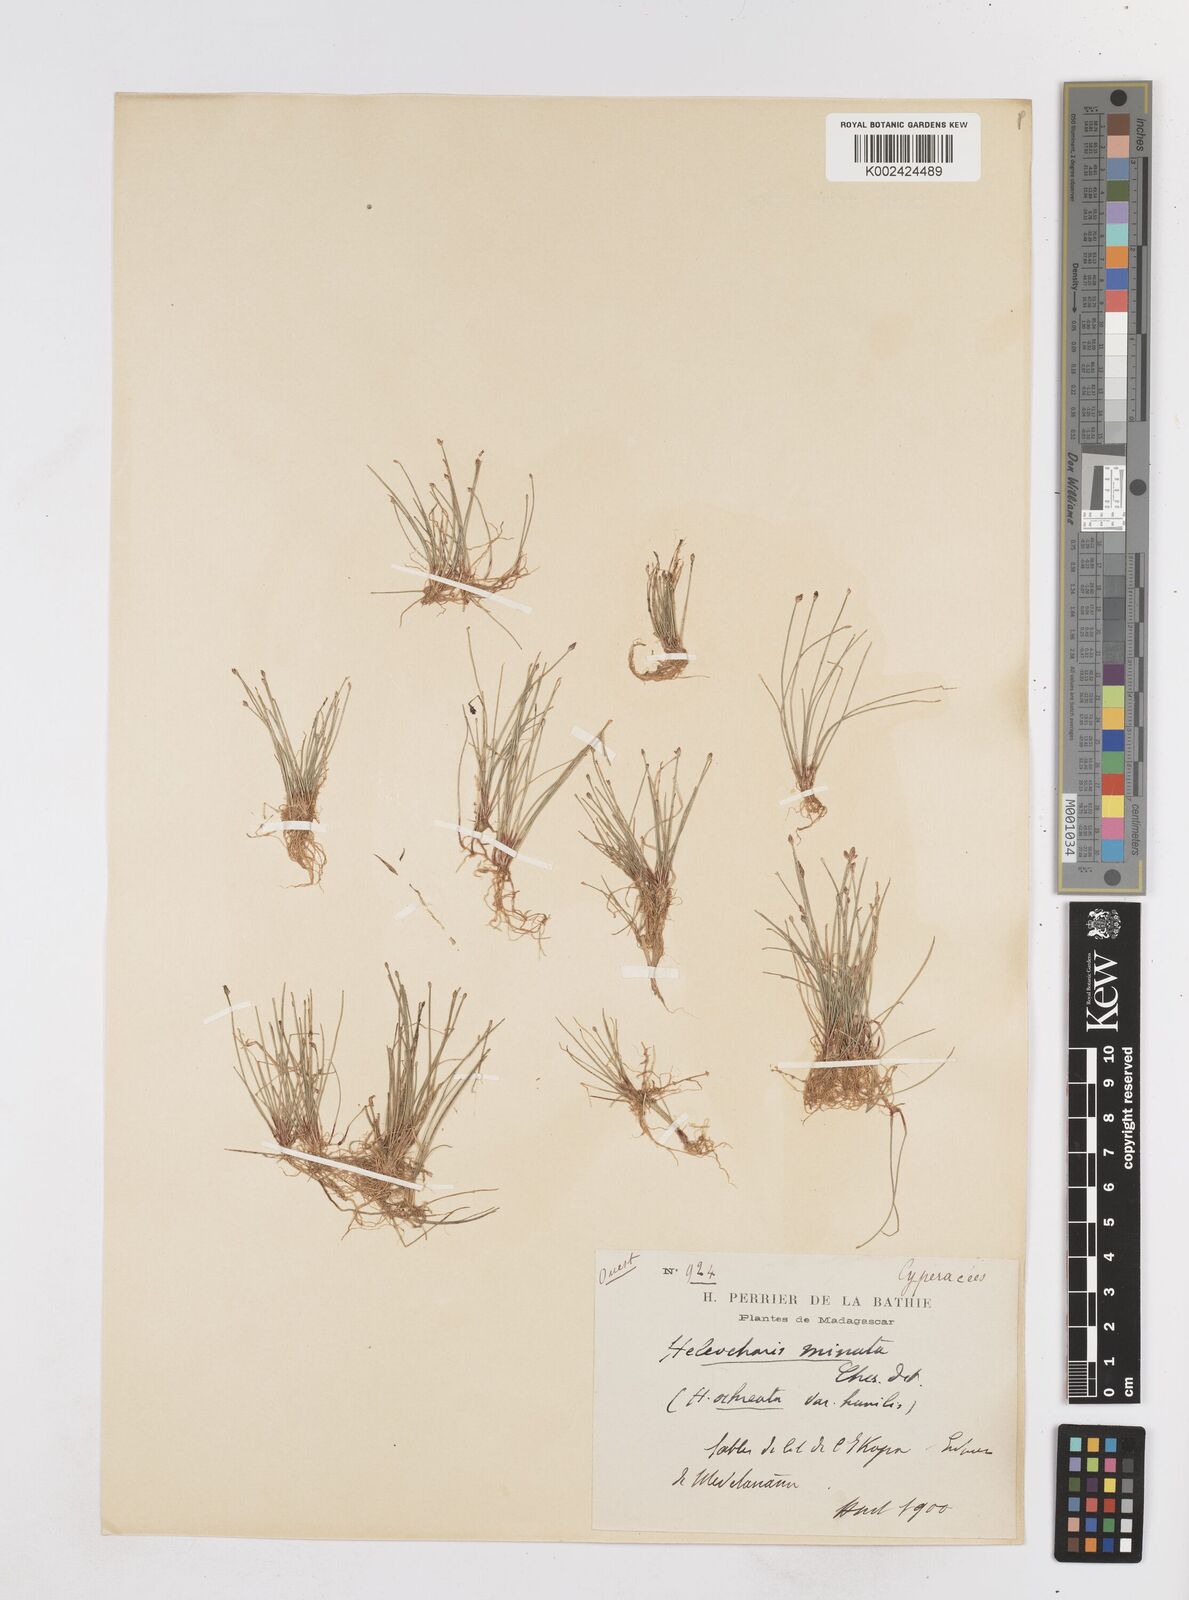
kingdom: Plantae
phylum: Tracheophyta
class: Liliopsida
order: Poales
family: Cyperaceae
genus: Eleocharis
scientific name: Eleocharis minuta
